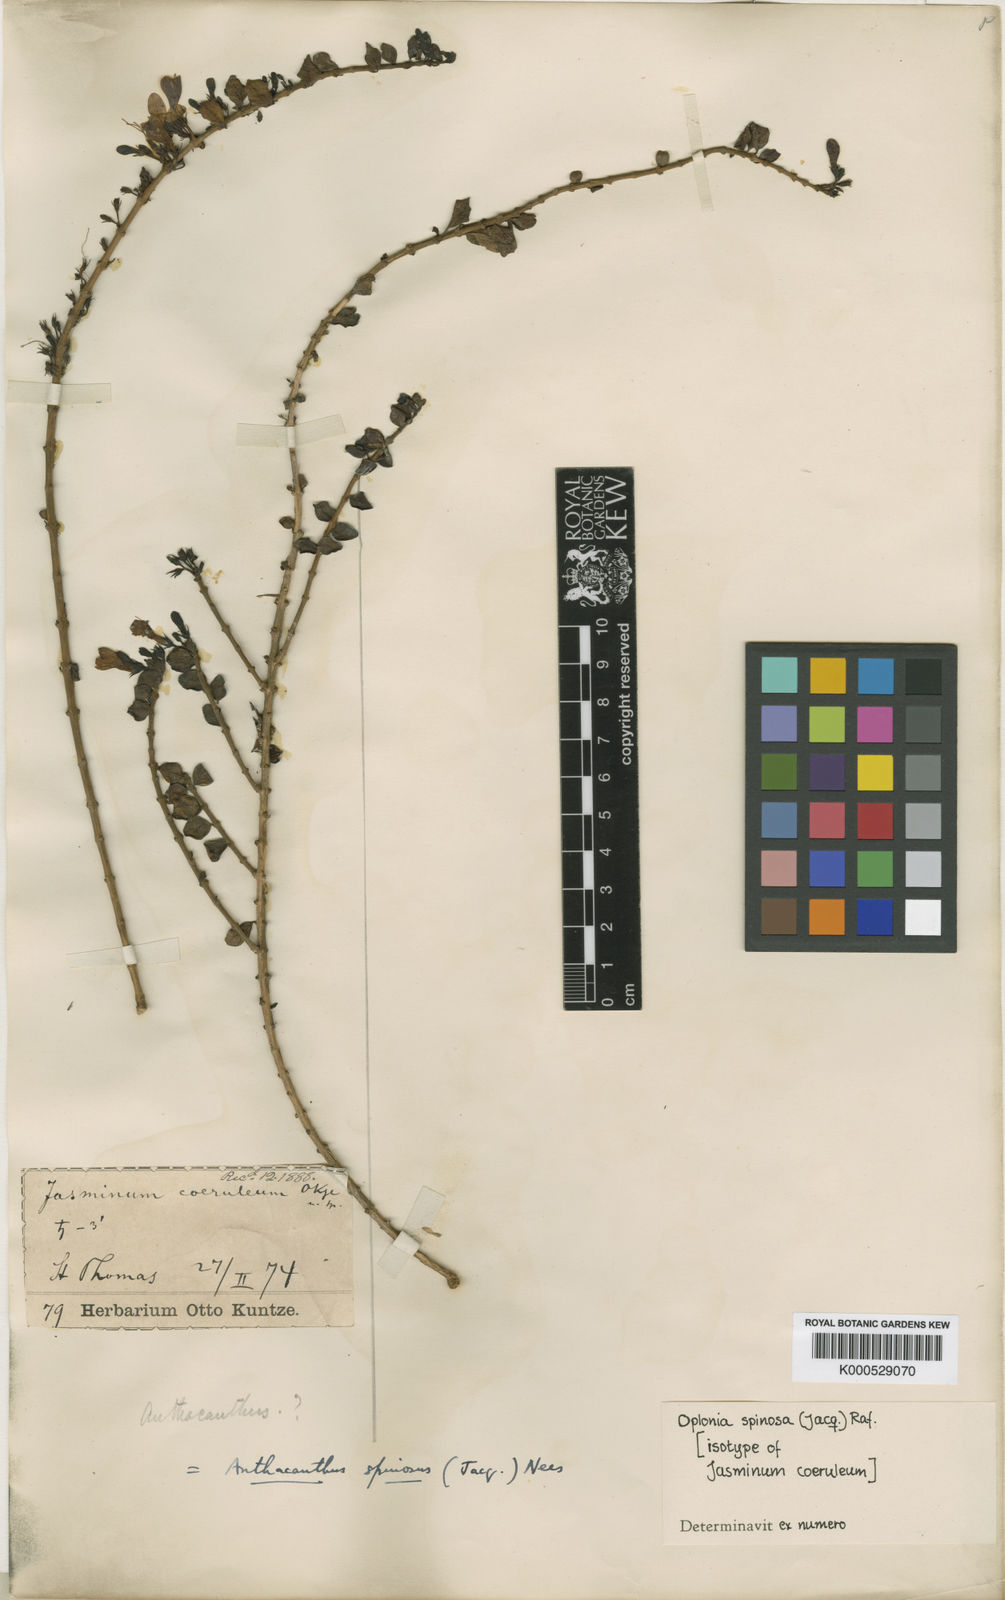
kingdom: Plantae
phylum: Tracheophyta
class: Magnoliopsida
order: Lamiales
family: Acanthaceae
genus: Oplonia
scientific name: Oplonia spinosa
